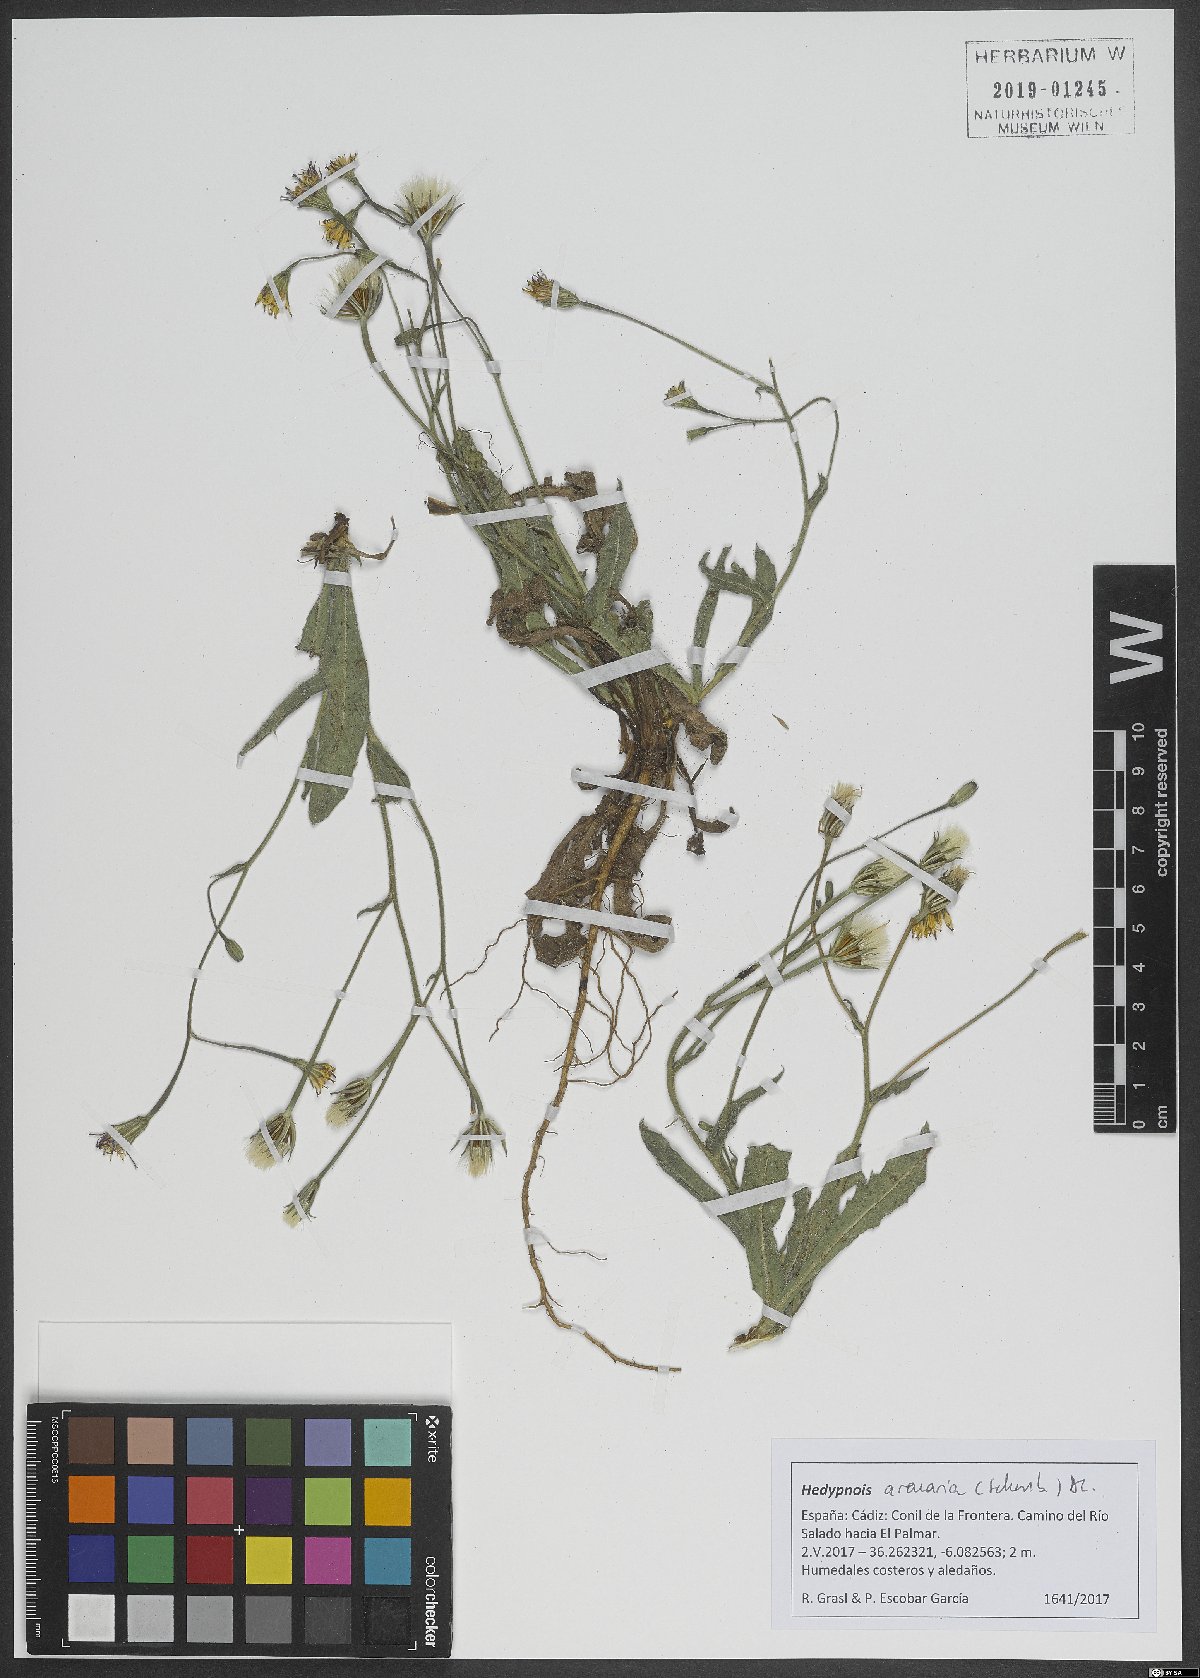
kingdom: Plantae
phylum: Tracheophyta
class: Magnoliopsida
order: Asterales
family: Asteraceae
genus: Hedypnois
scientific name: Hedypnois arenaria
